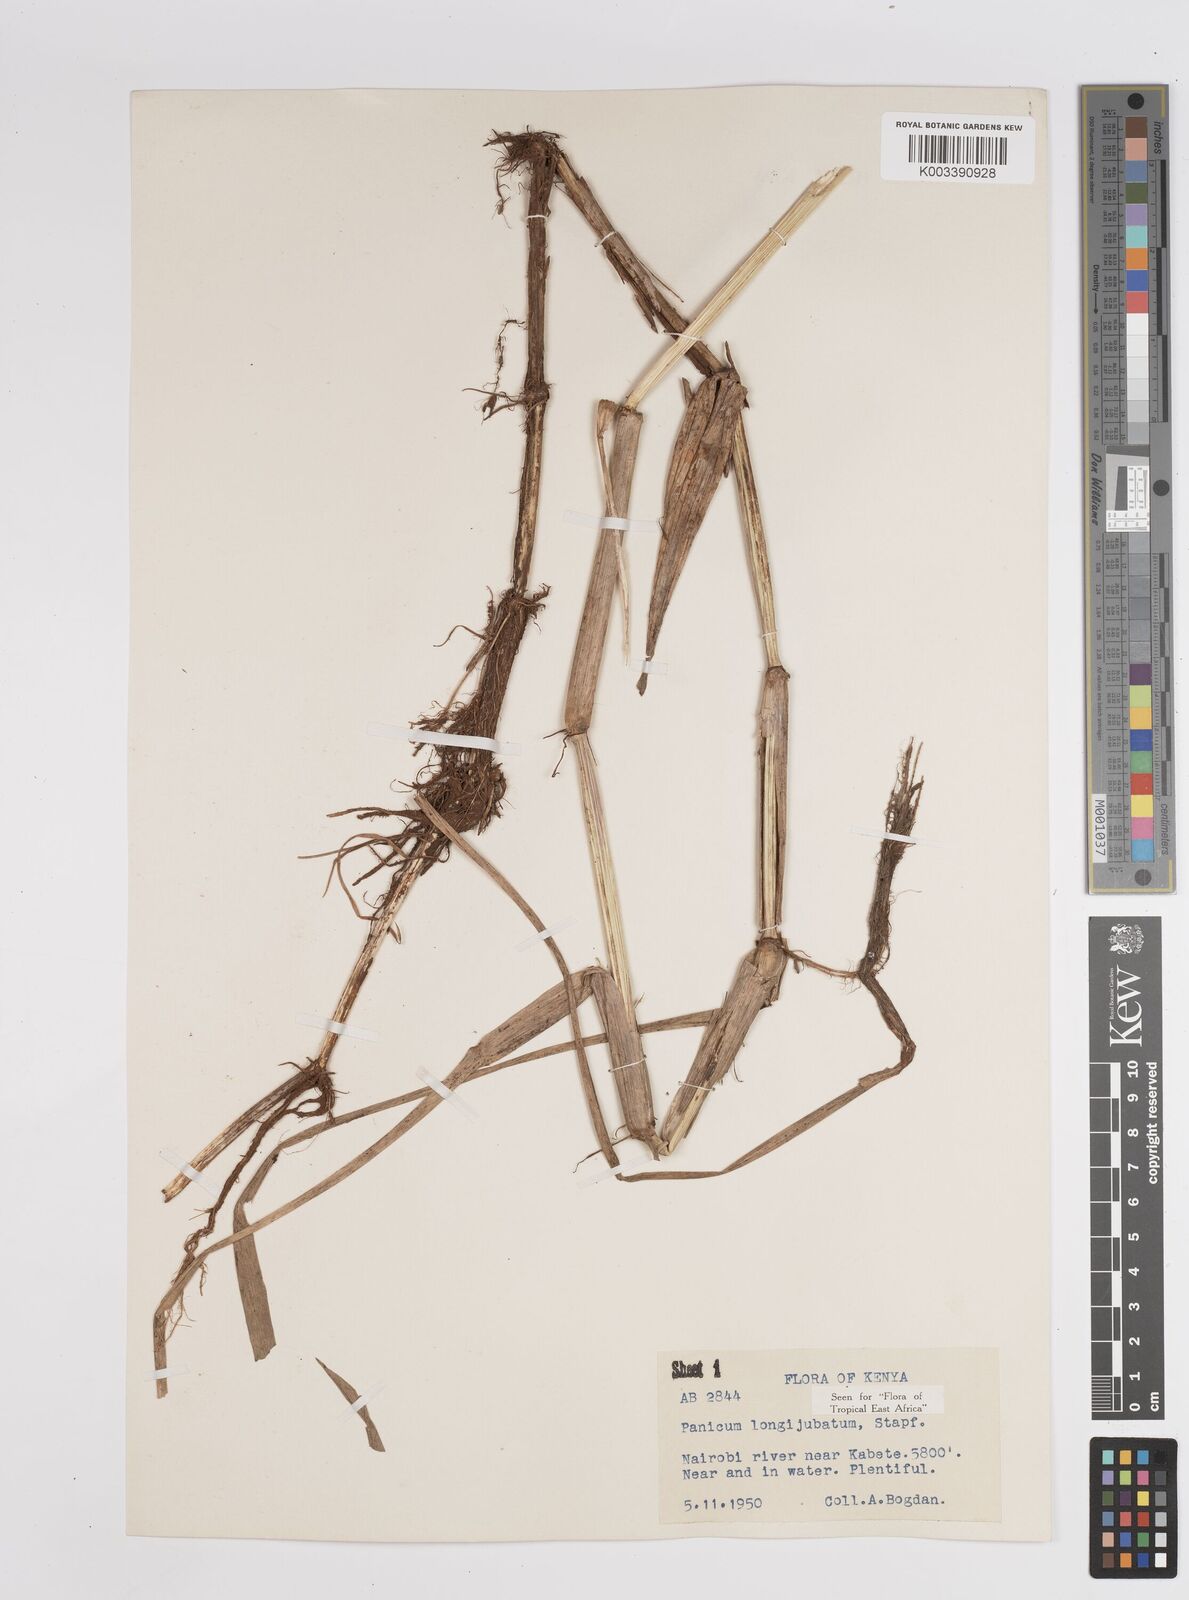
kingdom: Plantae
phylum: Tracheophyta
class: Liliopsida
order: Poales
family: Poaceae
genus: Panicum
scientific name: Panicum subalbidum
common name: Elbow buffalo grass
